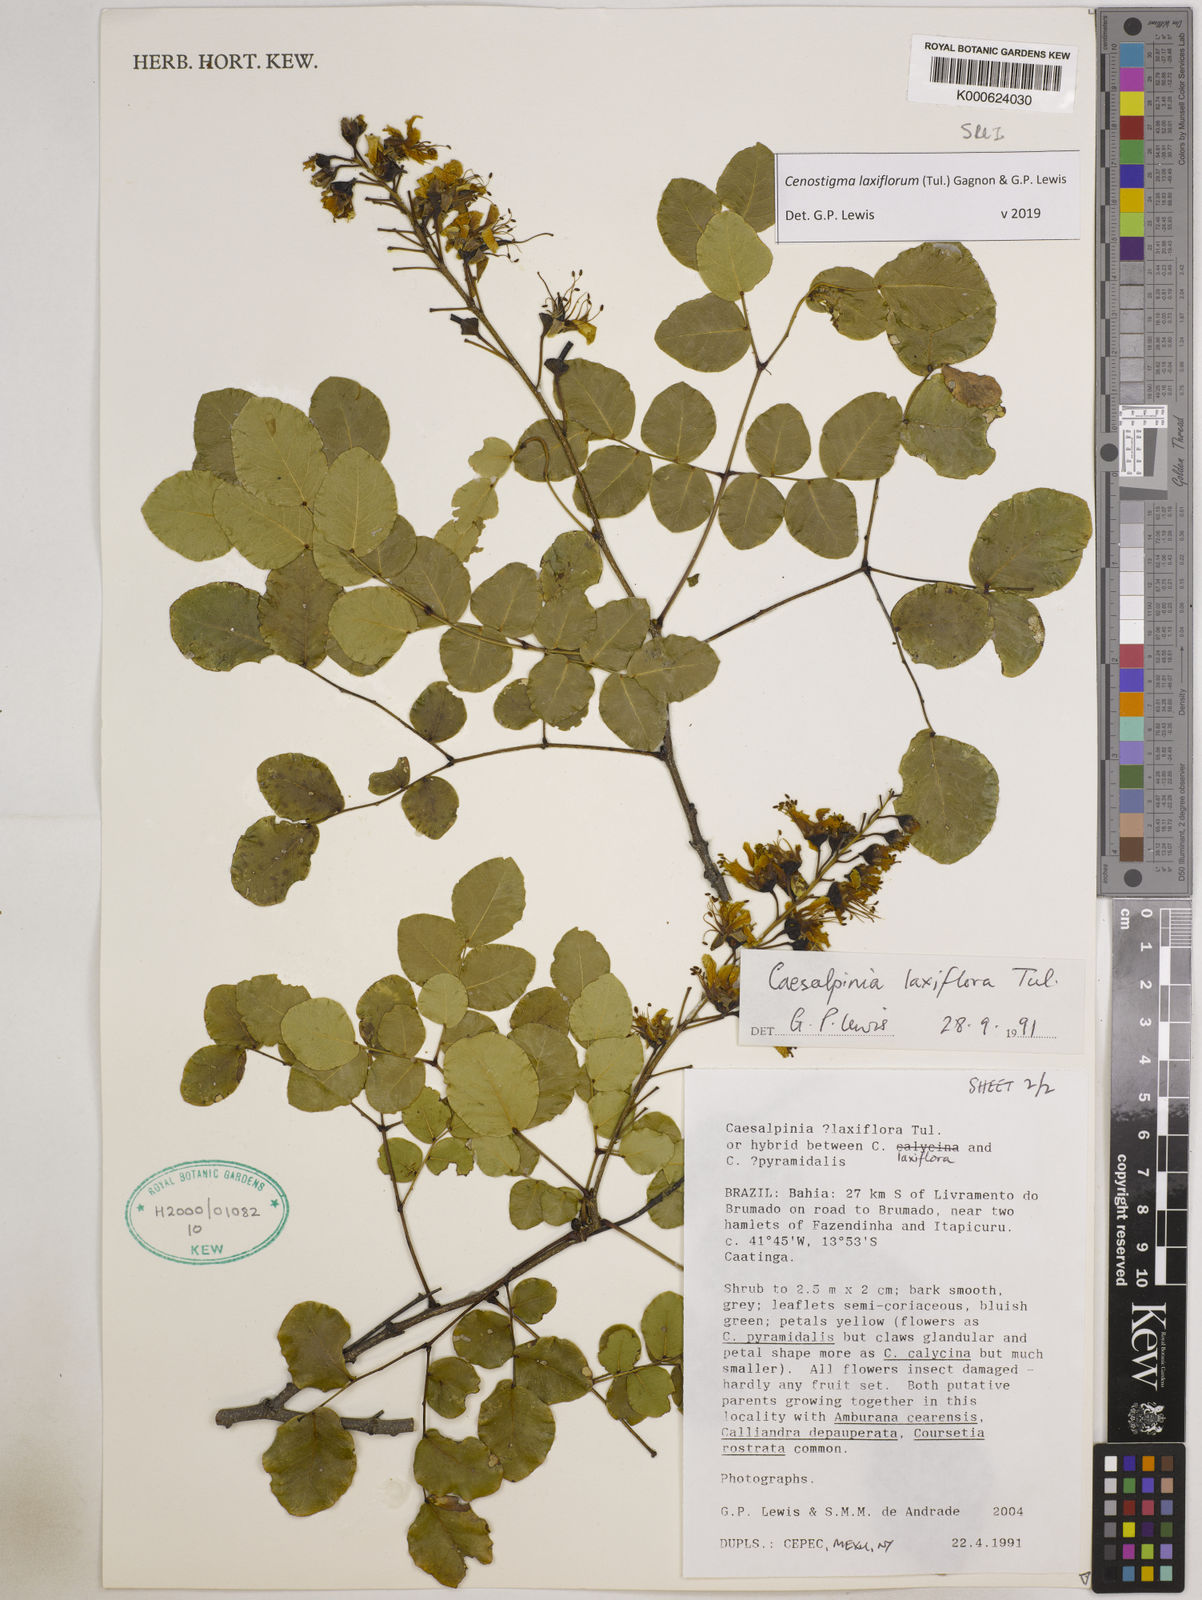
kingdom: Plantae
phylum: Tracheophyta
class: Magnoliopsida
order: Fabales
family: Fabaceae
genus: Cenostigma
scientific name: Cenostigma laxiflorum
